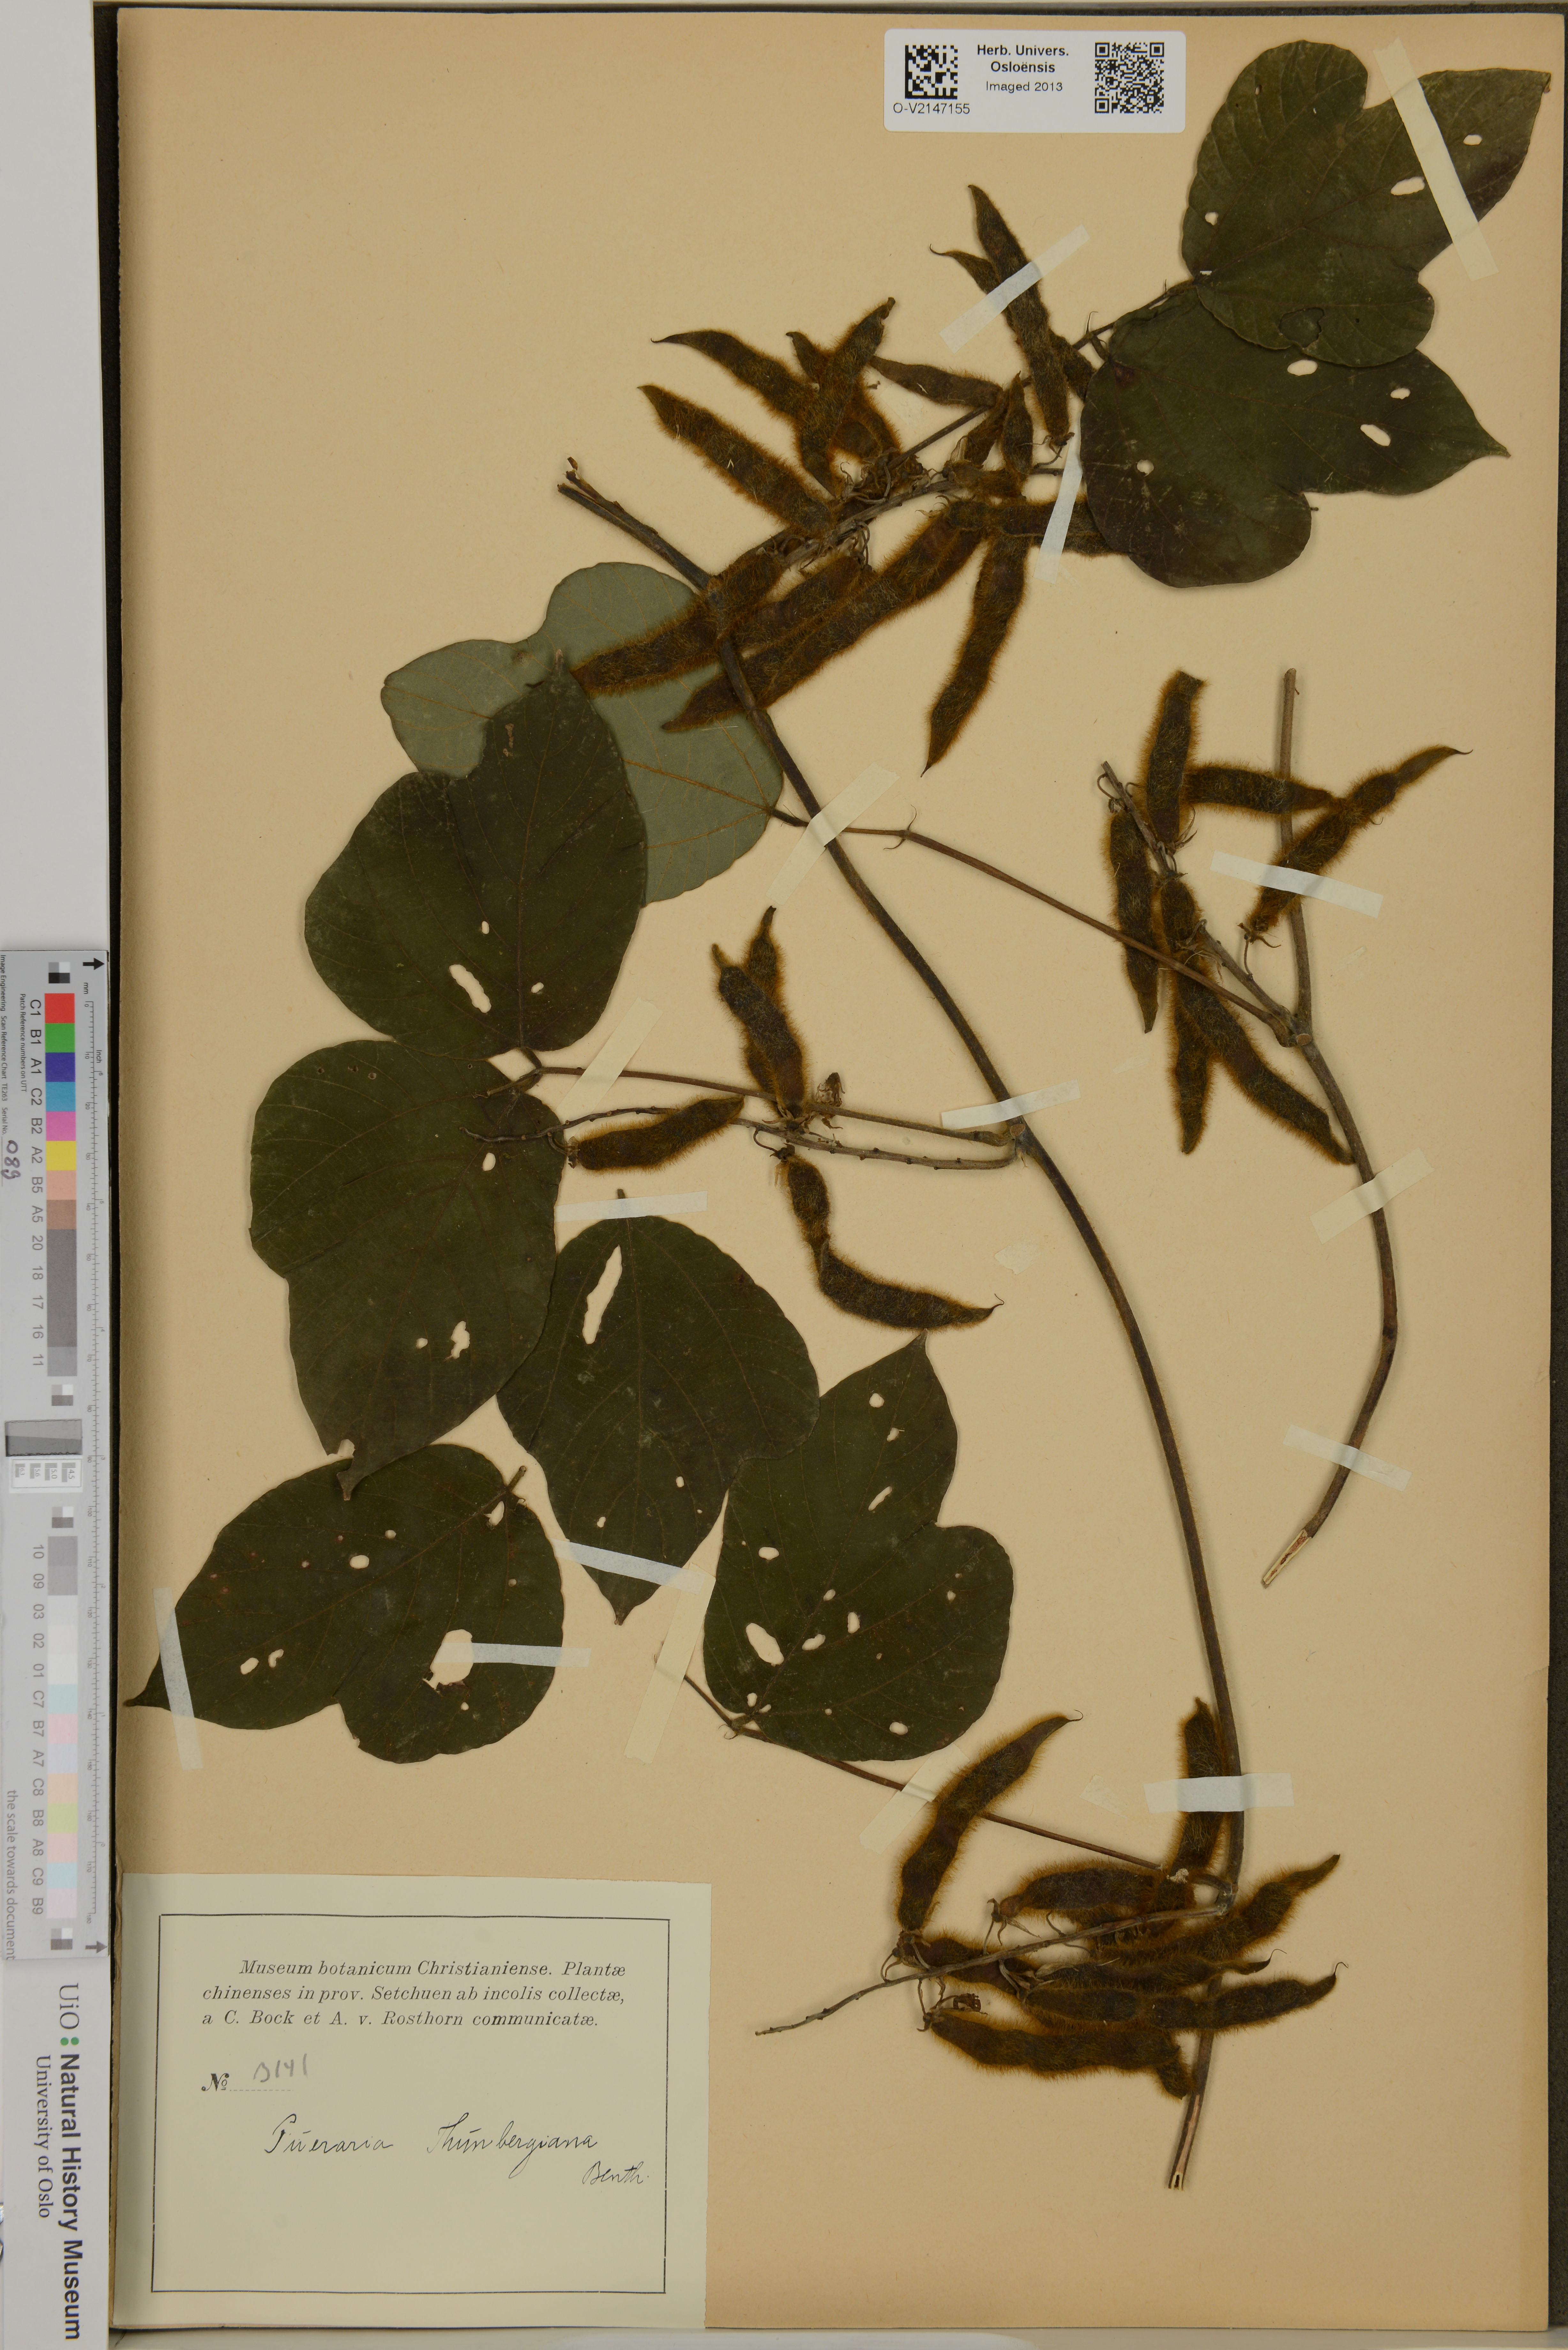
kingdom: Plantae
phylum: Tracheophyta
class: Magnoliopsida
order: Fabales
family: Fabaceae
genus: Pueraria
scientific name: Pueraria montana
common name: Kudzu
